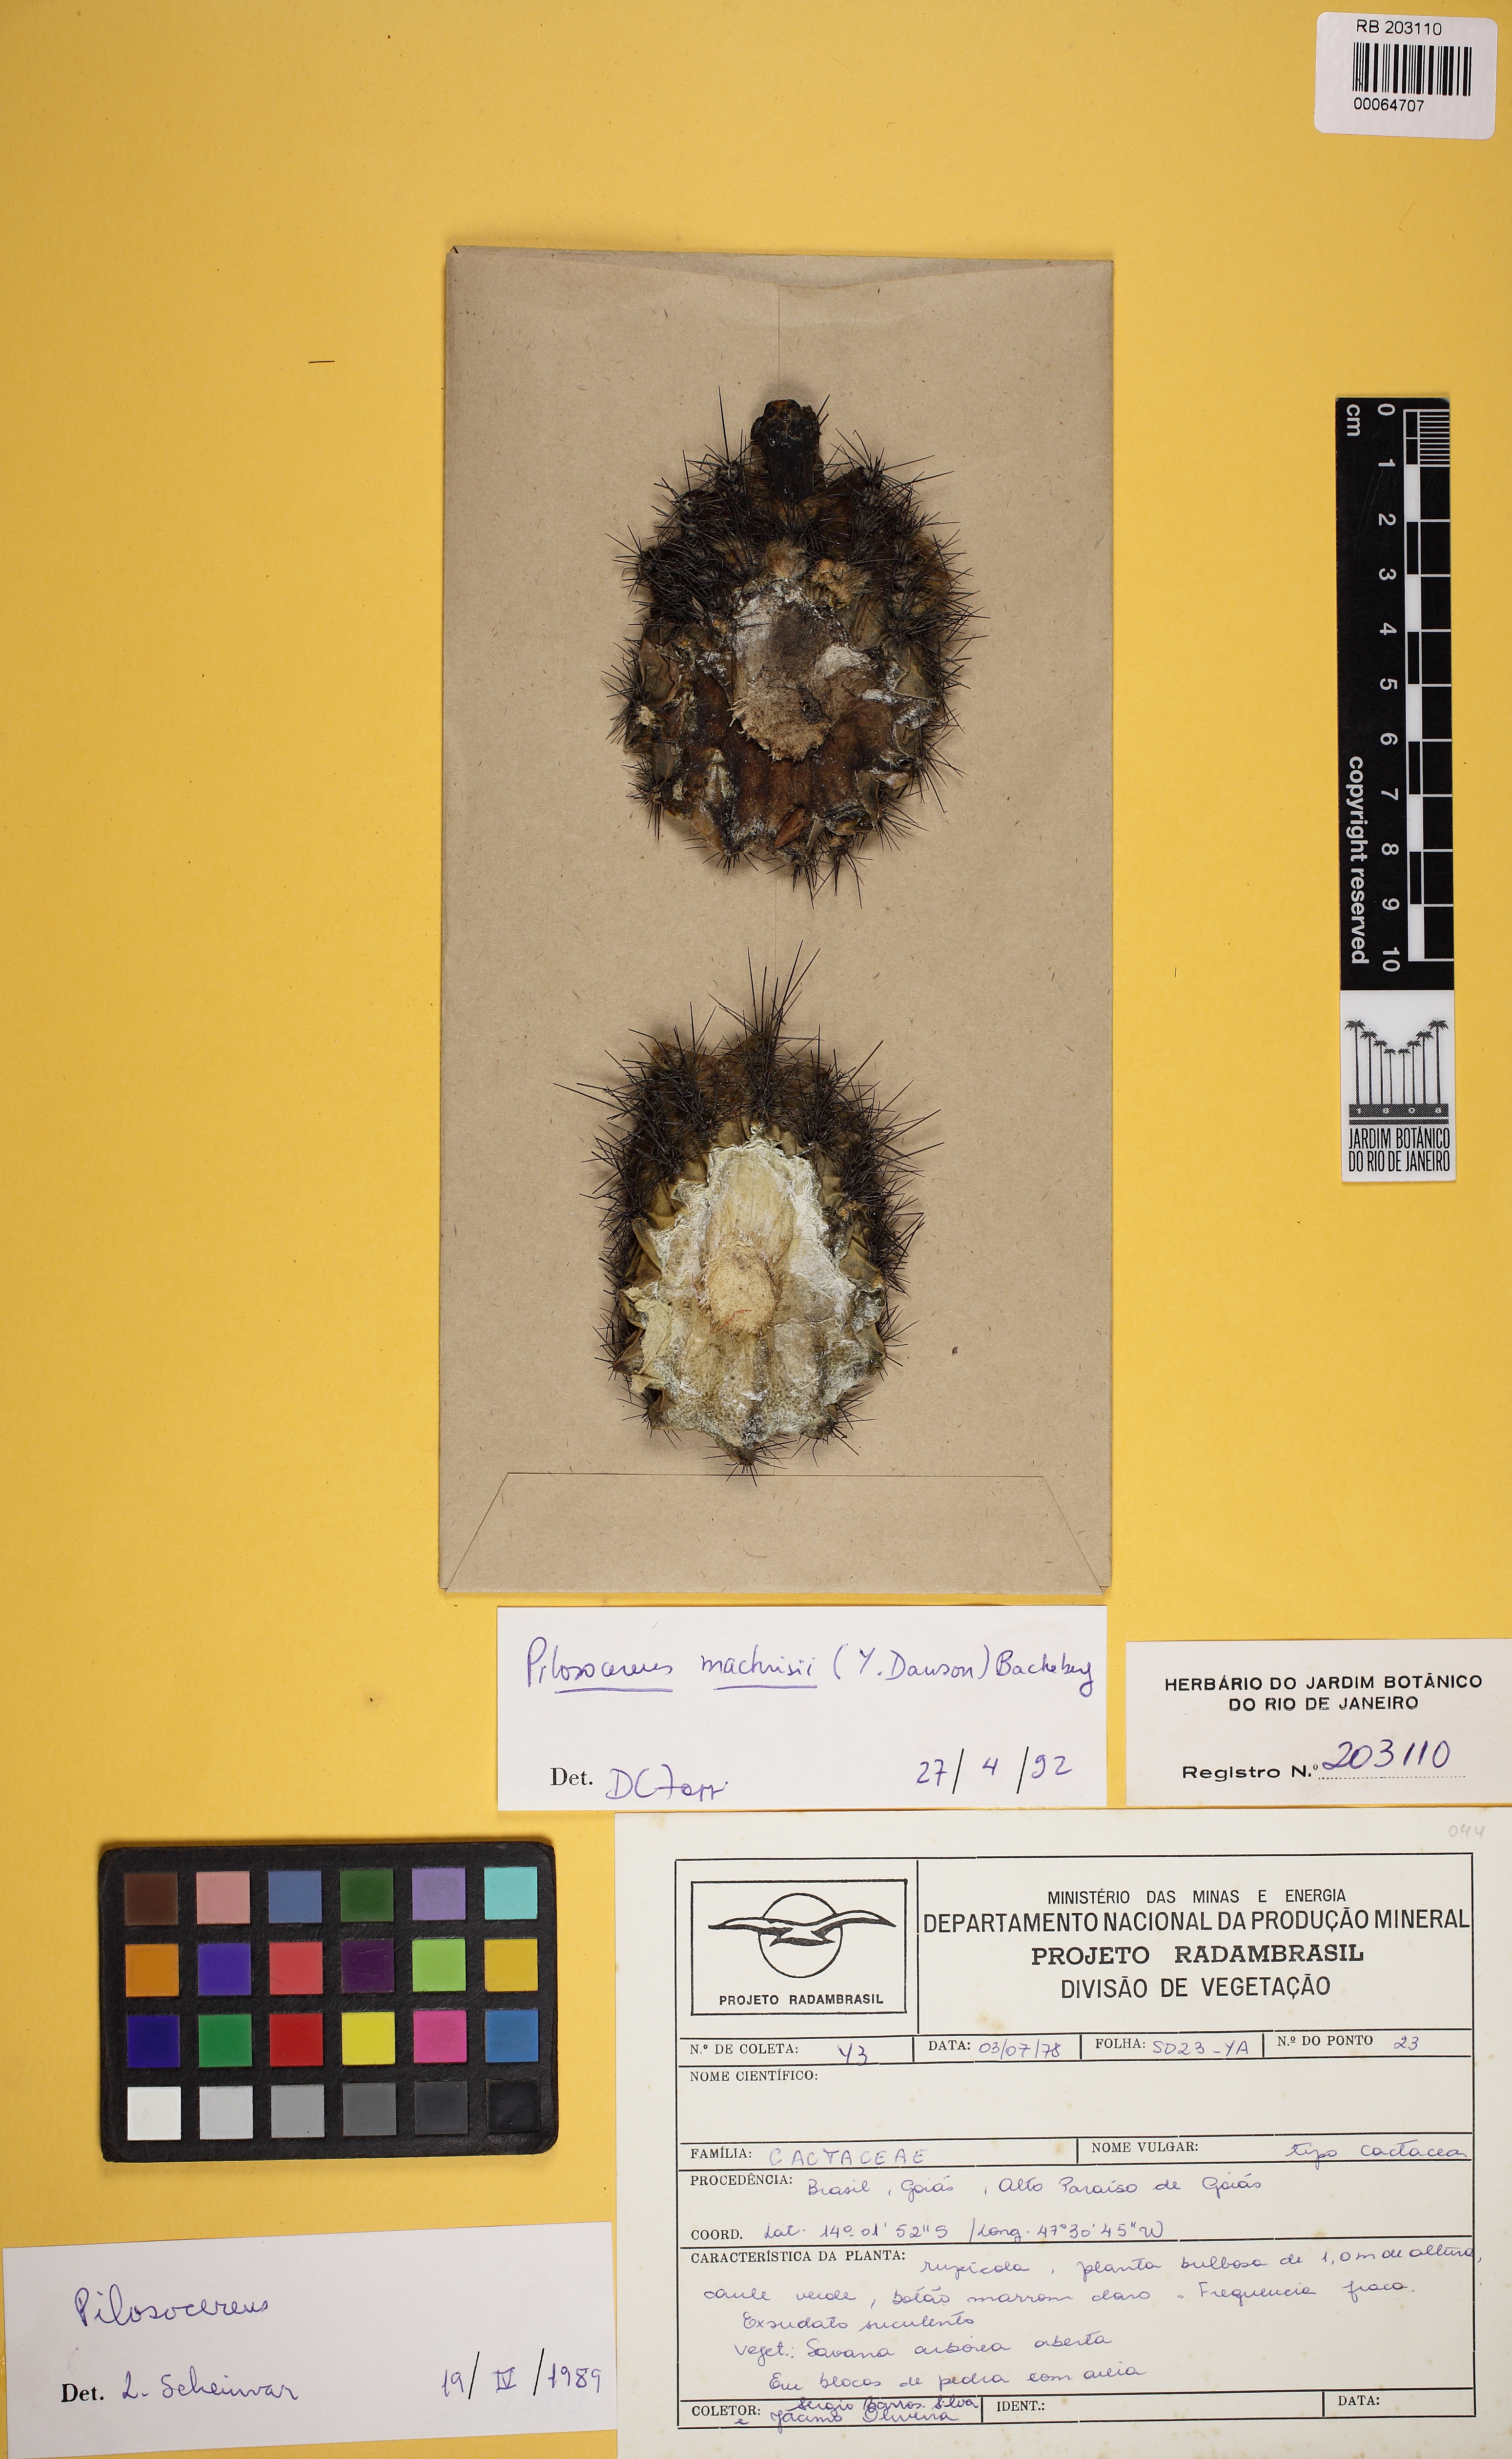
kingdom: Plantae
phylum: Tracheophyta
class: Magnoliopsida
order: Caryophyllales
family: Cactaceae
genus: Pilosocereus
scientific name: Pilosocereus machrisii
